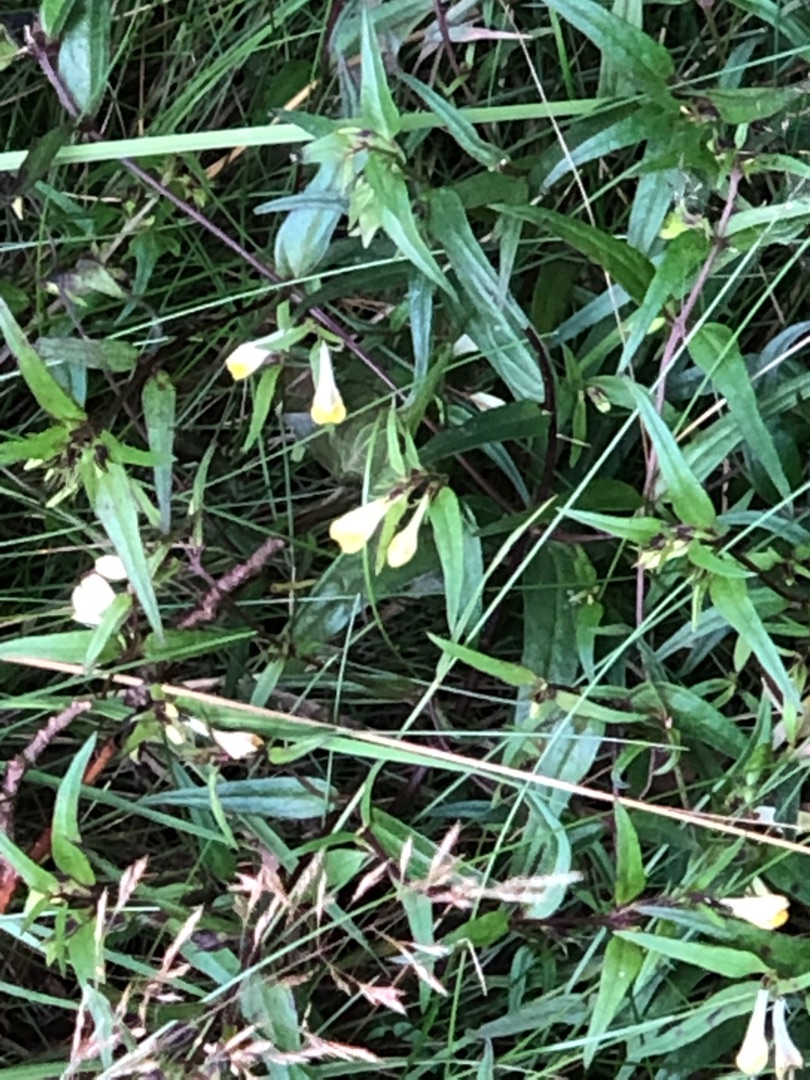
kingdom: Plantae
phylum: Tracheophyta
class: Magnoliopsida
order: Lamiales
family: Orobanchaceae
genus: Melampyrum
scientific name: Melampyrum pratense
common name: Almindelig kohvede
